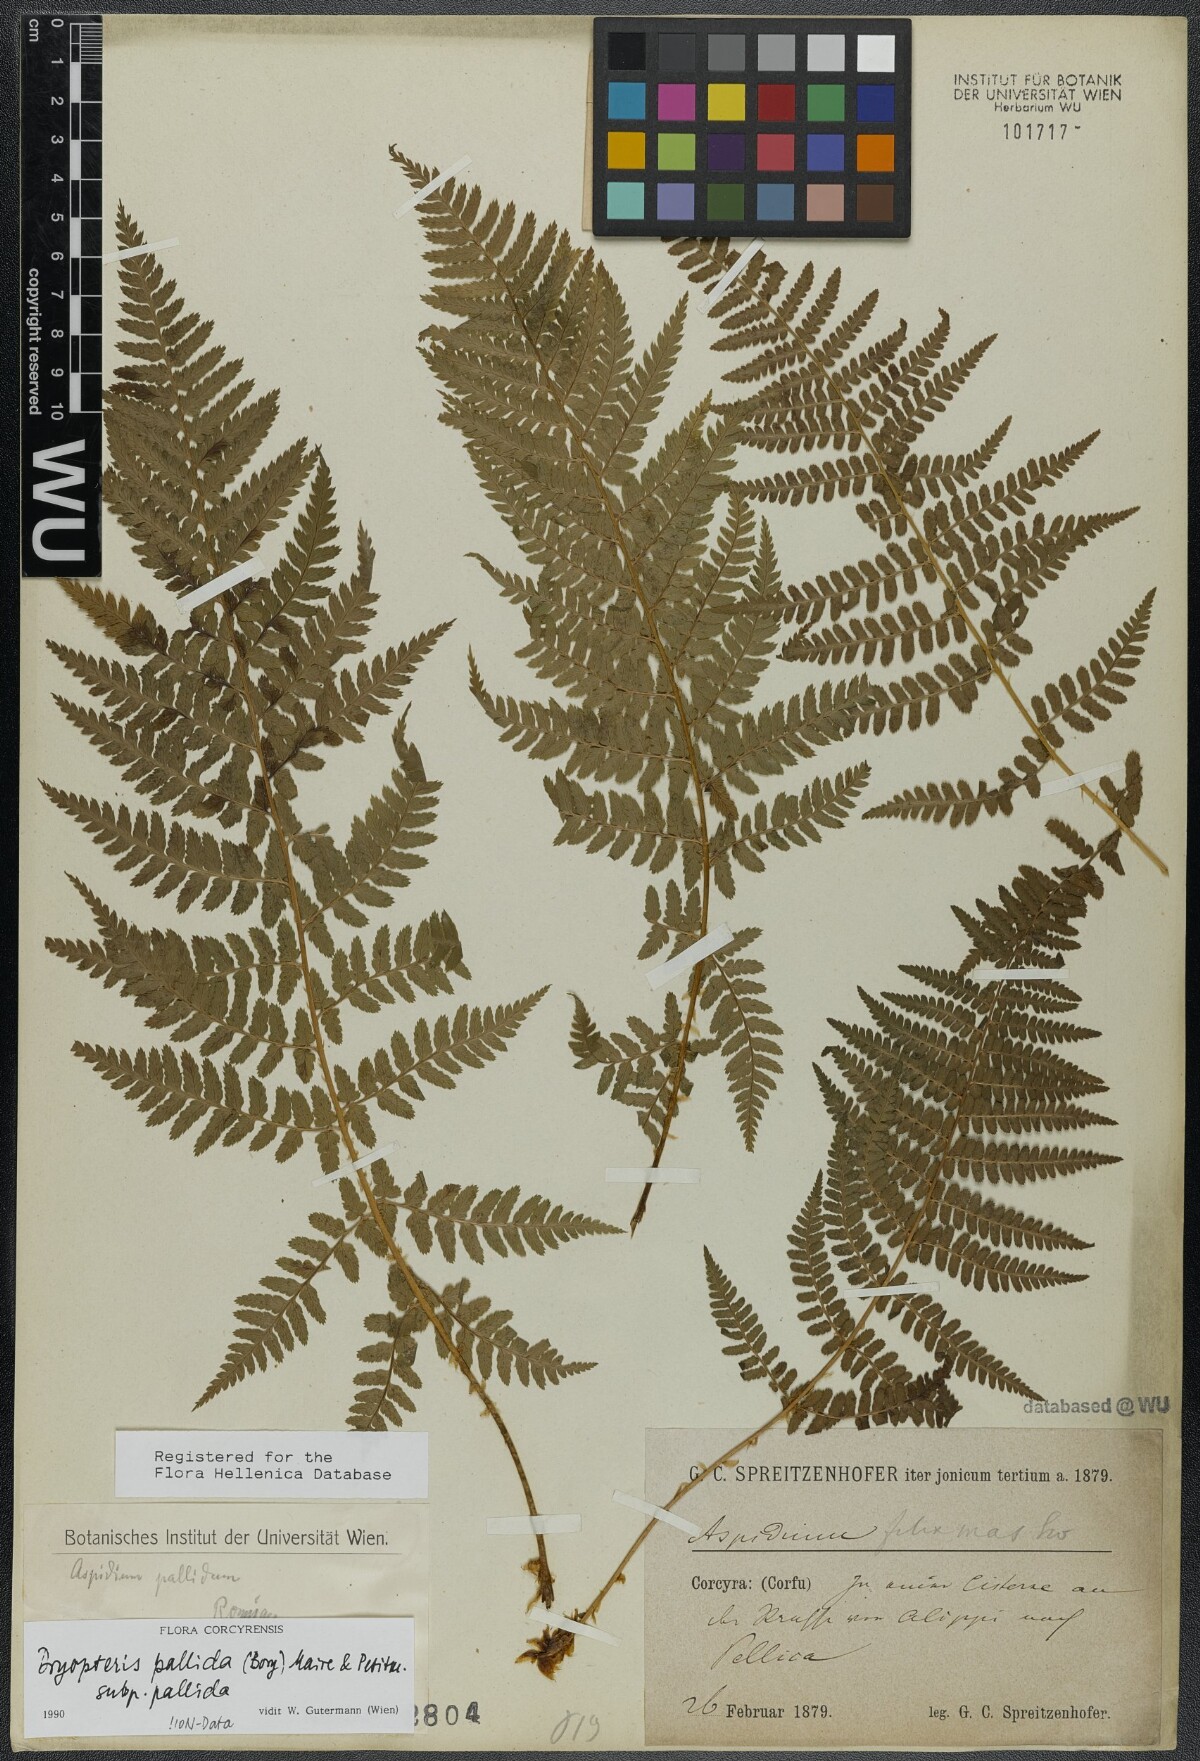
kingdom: Plantae
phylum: Tracheophyta
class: Polypodiopsida
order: Polypodiales
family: Dryopteridaceae
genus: Dryopteris
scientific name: Dryopteris pallida
